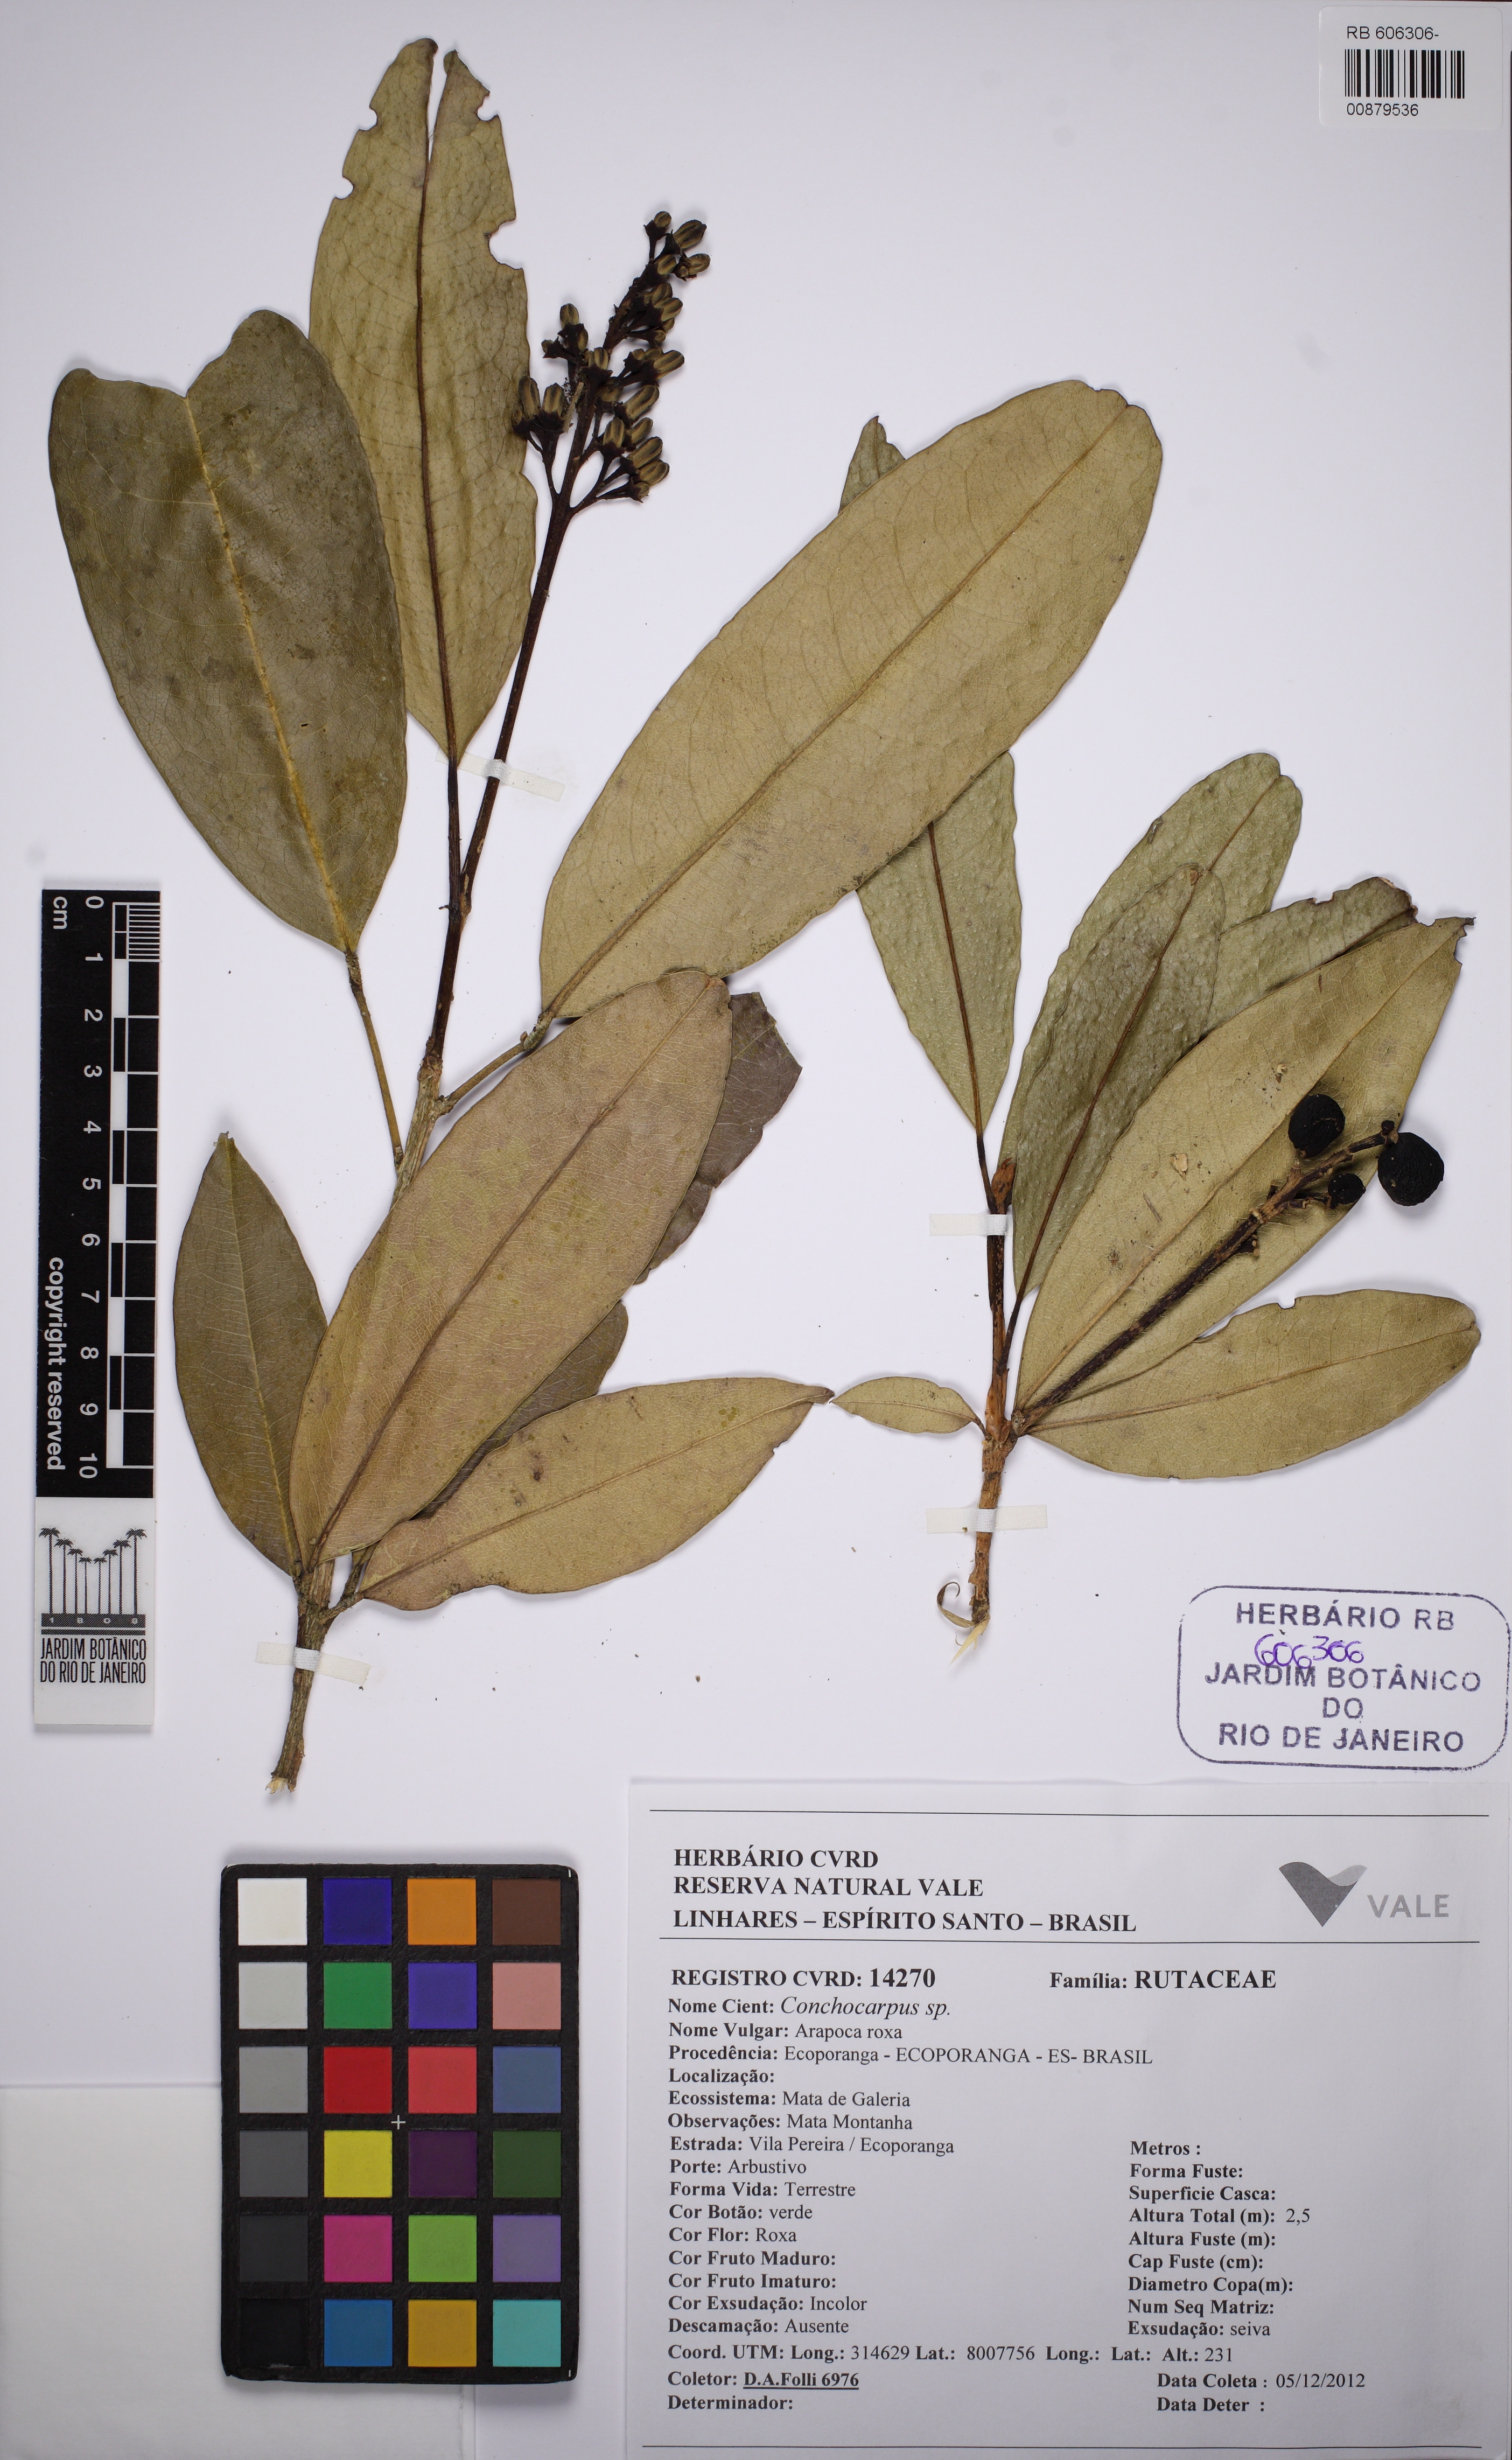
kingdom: Plantae
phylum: Tracheophyta
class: Magnoliopsida
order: Sapindales
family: Rutaceae
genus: Conchocarpus
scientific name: Conchocarpus ruber
